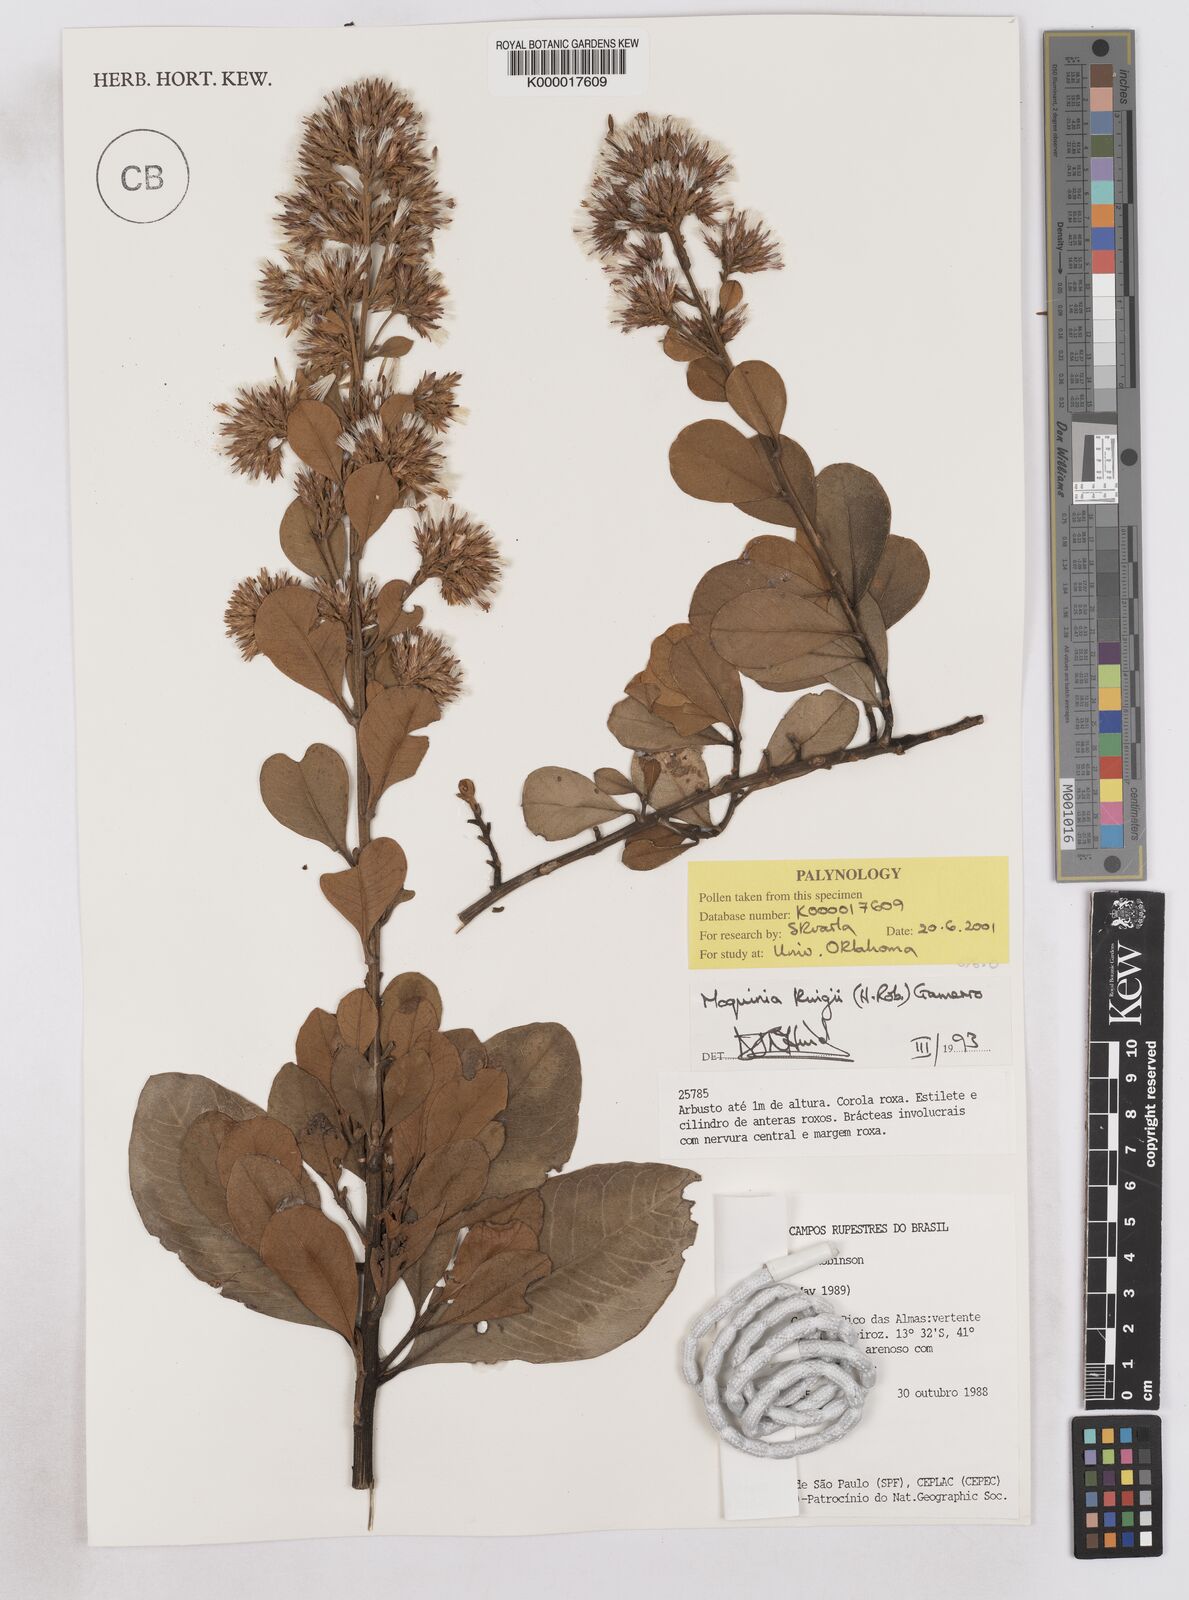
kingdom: Plantae
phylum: Tracheophyta
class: Magnoliopsida
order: Asterales
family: Asteraceae
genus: Pseudostifftia
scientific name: Pseudostifftia kingii
